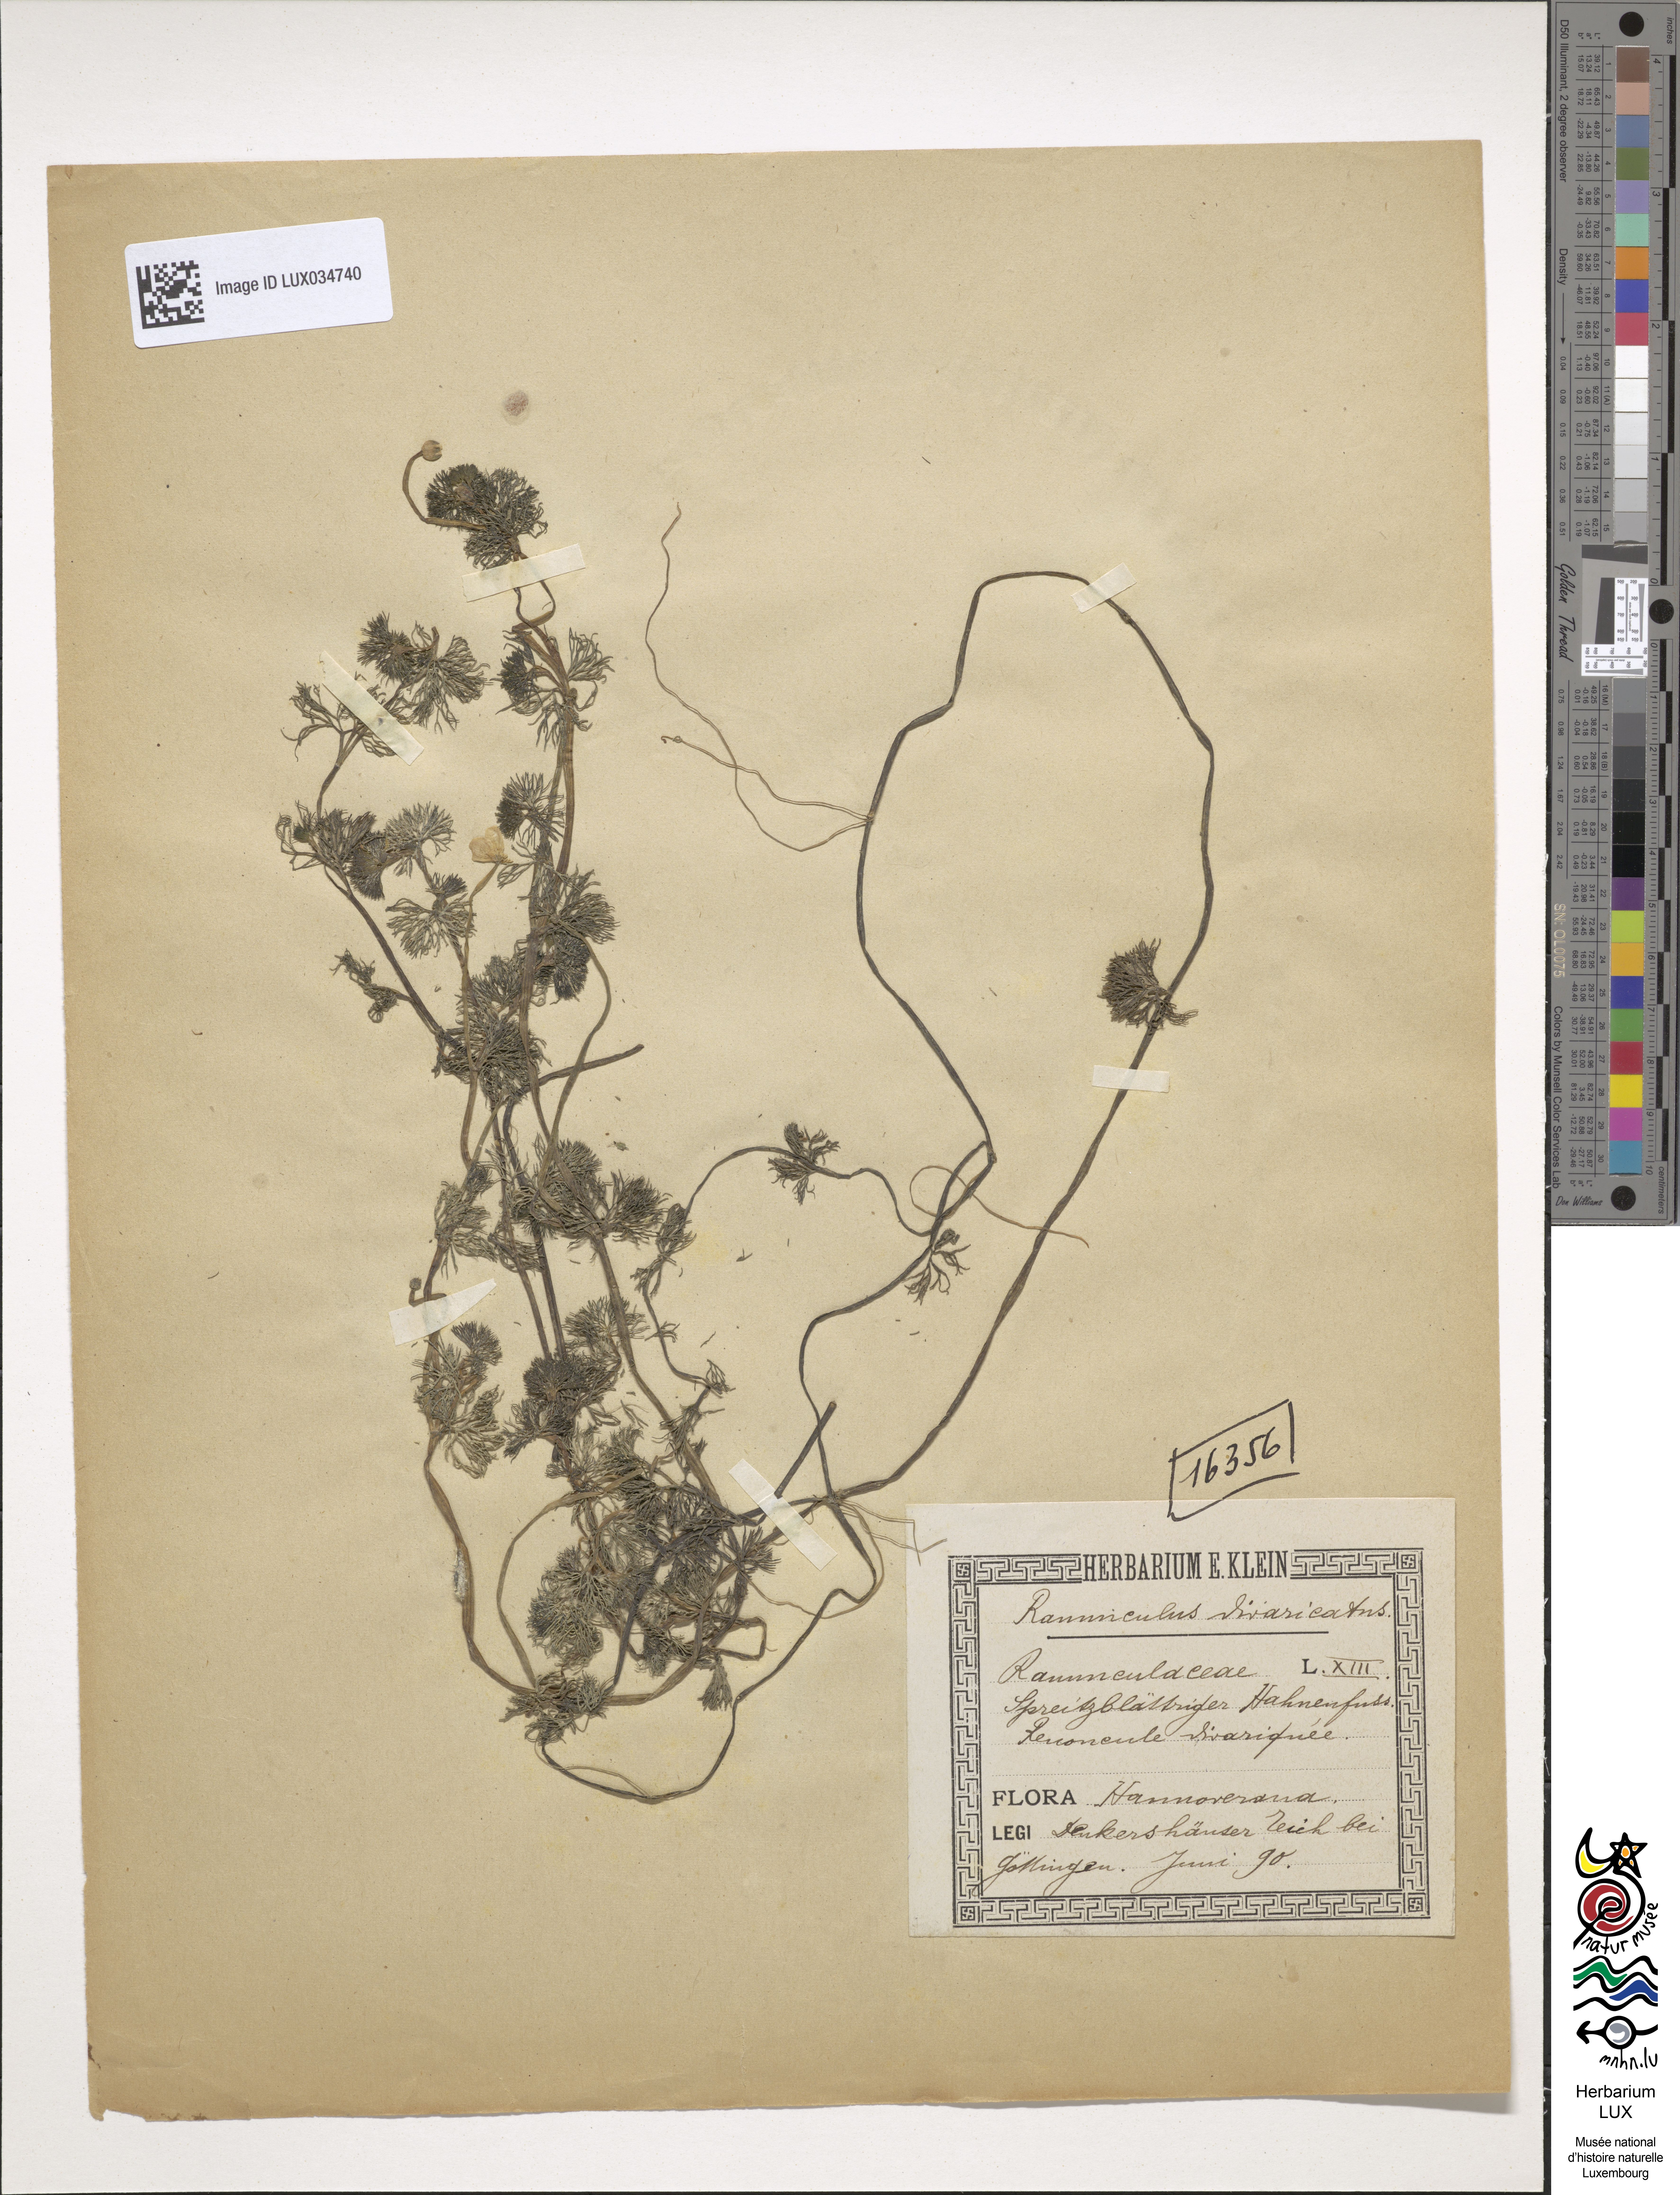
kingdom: Plantae
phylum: Tracheophyta
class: Magnoliopsida
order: Ranunculales
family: Ranunculaceae
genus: Ranunculus
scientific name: Ranunculus trichophyllus
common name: Thread-leaved water-crowfoot
